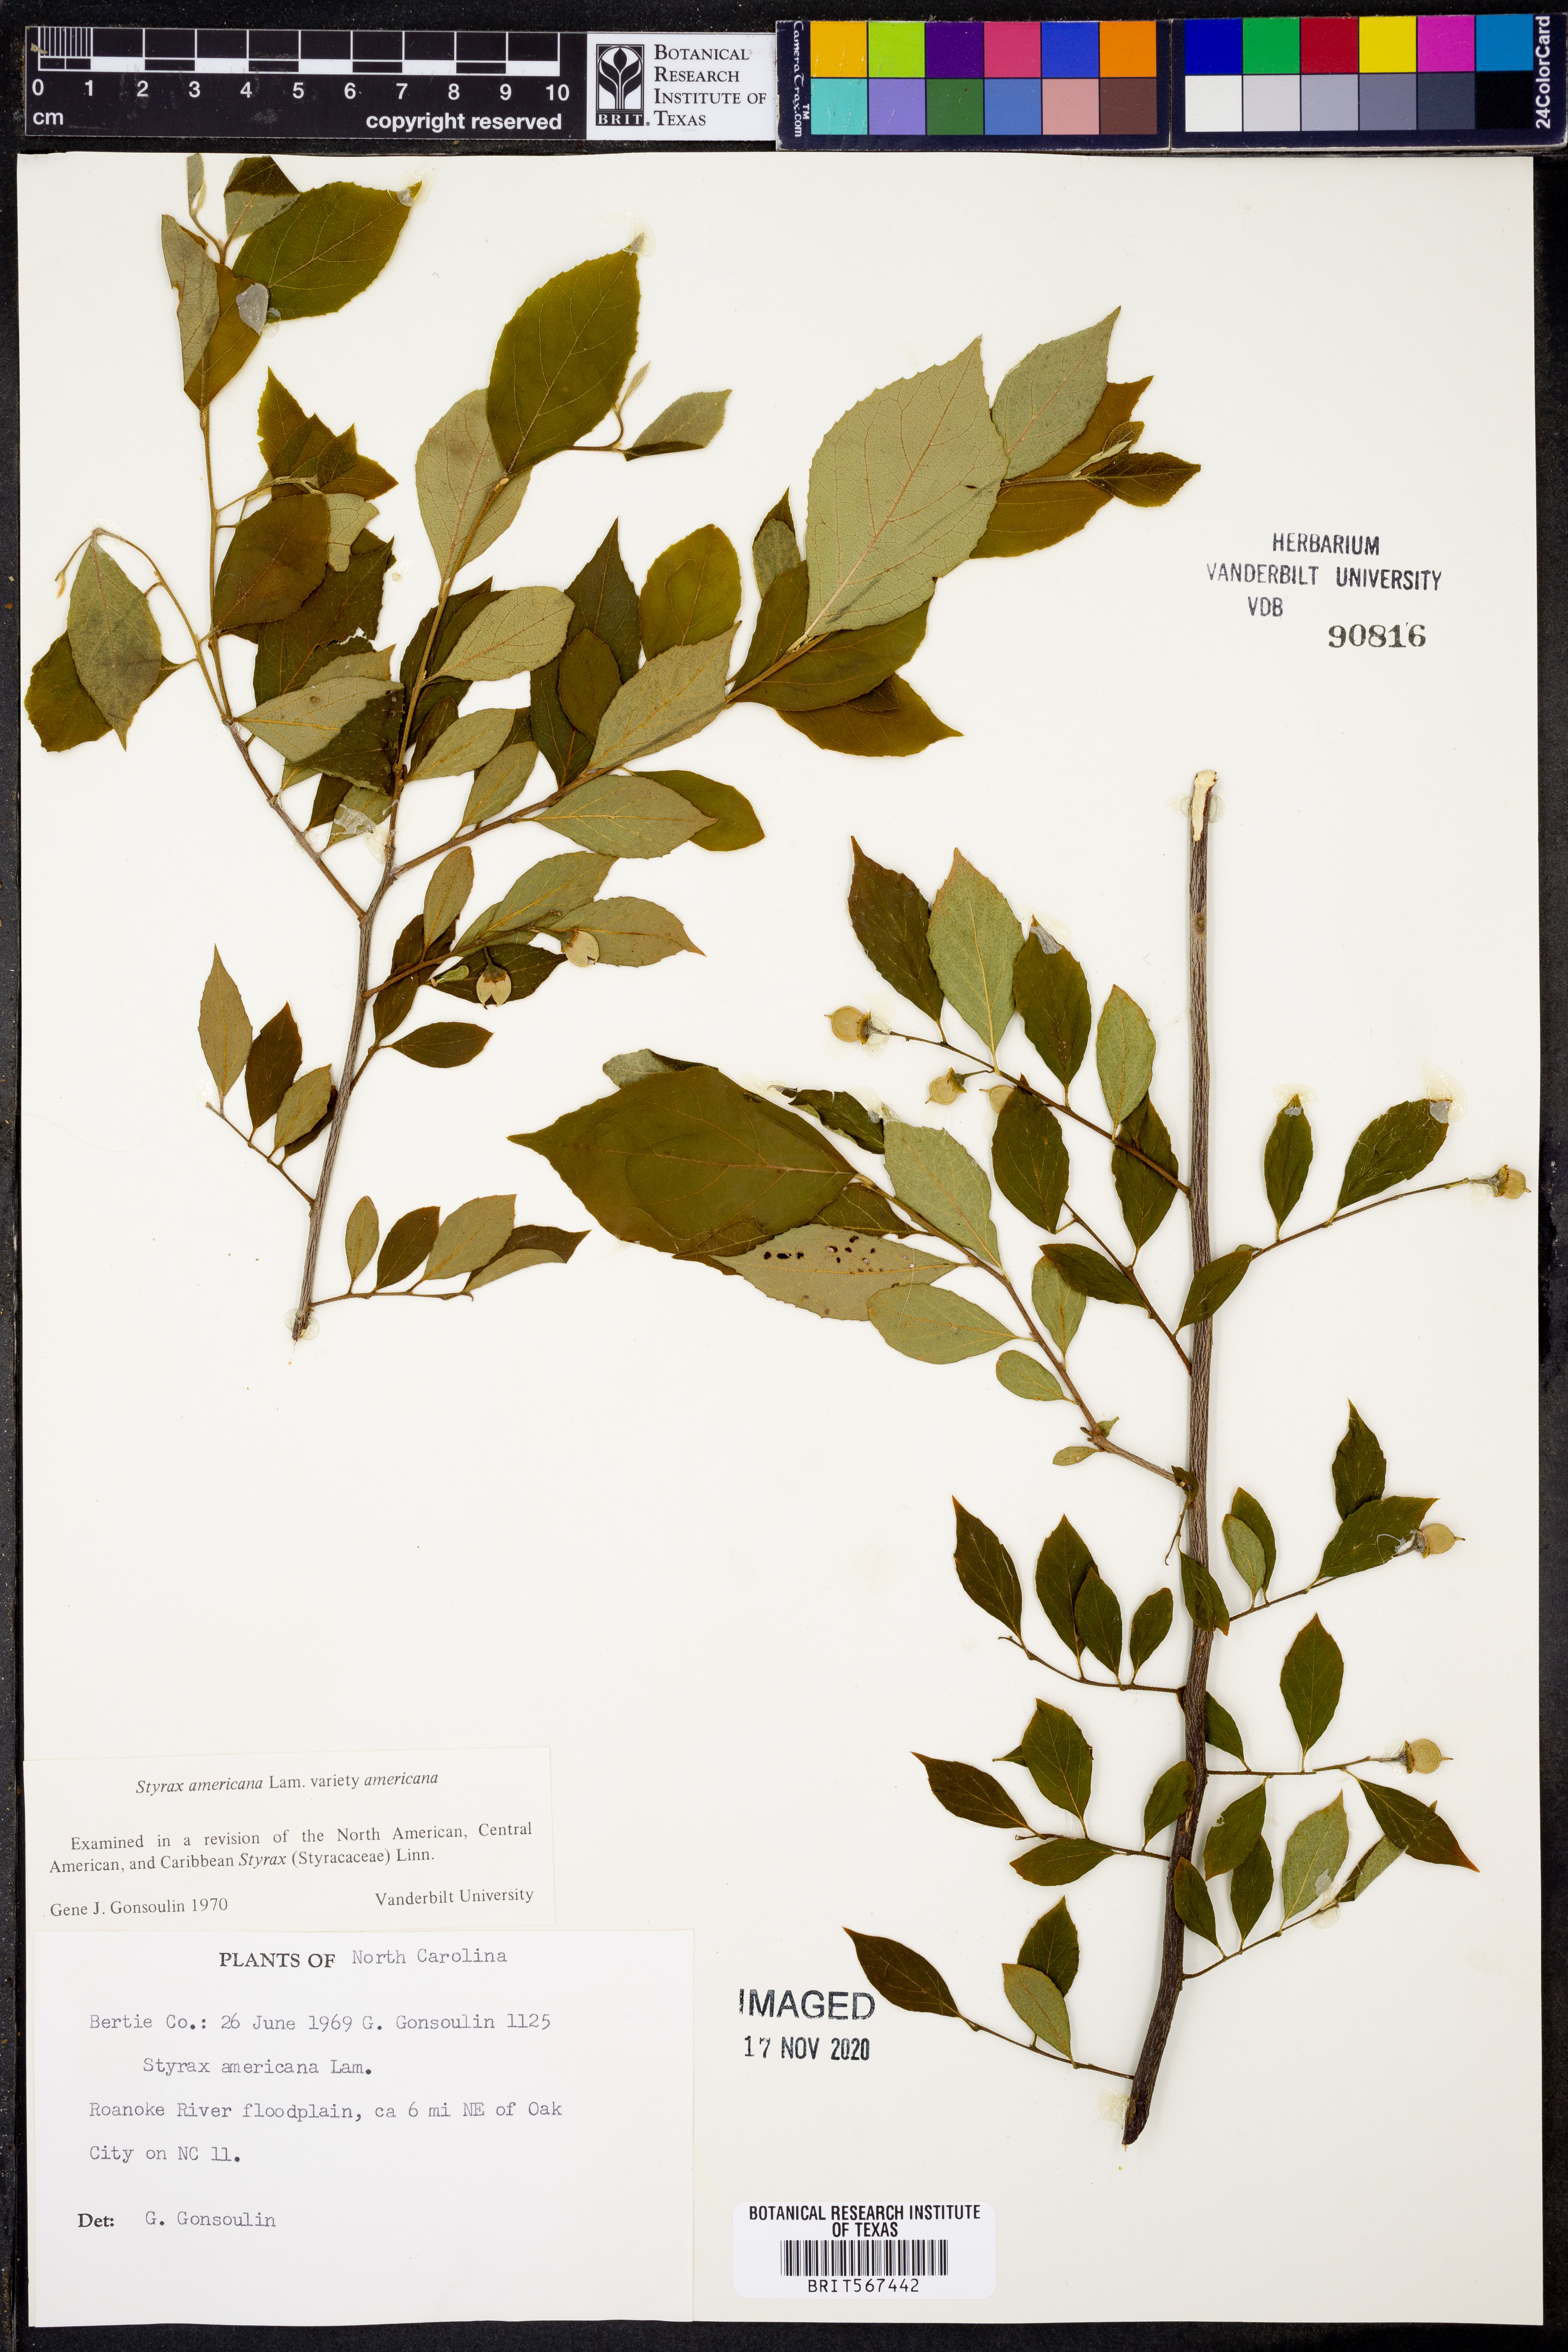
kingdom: Plantae
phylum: Tracheophyta
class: Magnoliopsida
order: Ericales
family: Styracaceae
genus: Styrax
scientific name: Styrax americanus
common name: American snowbell
